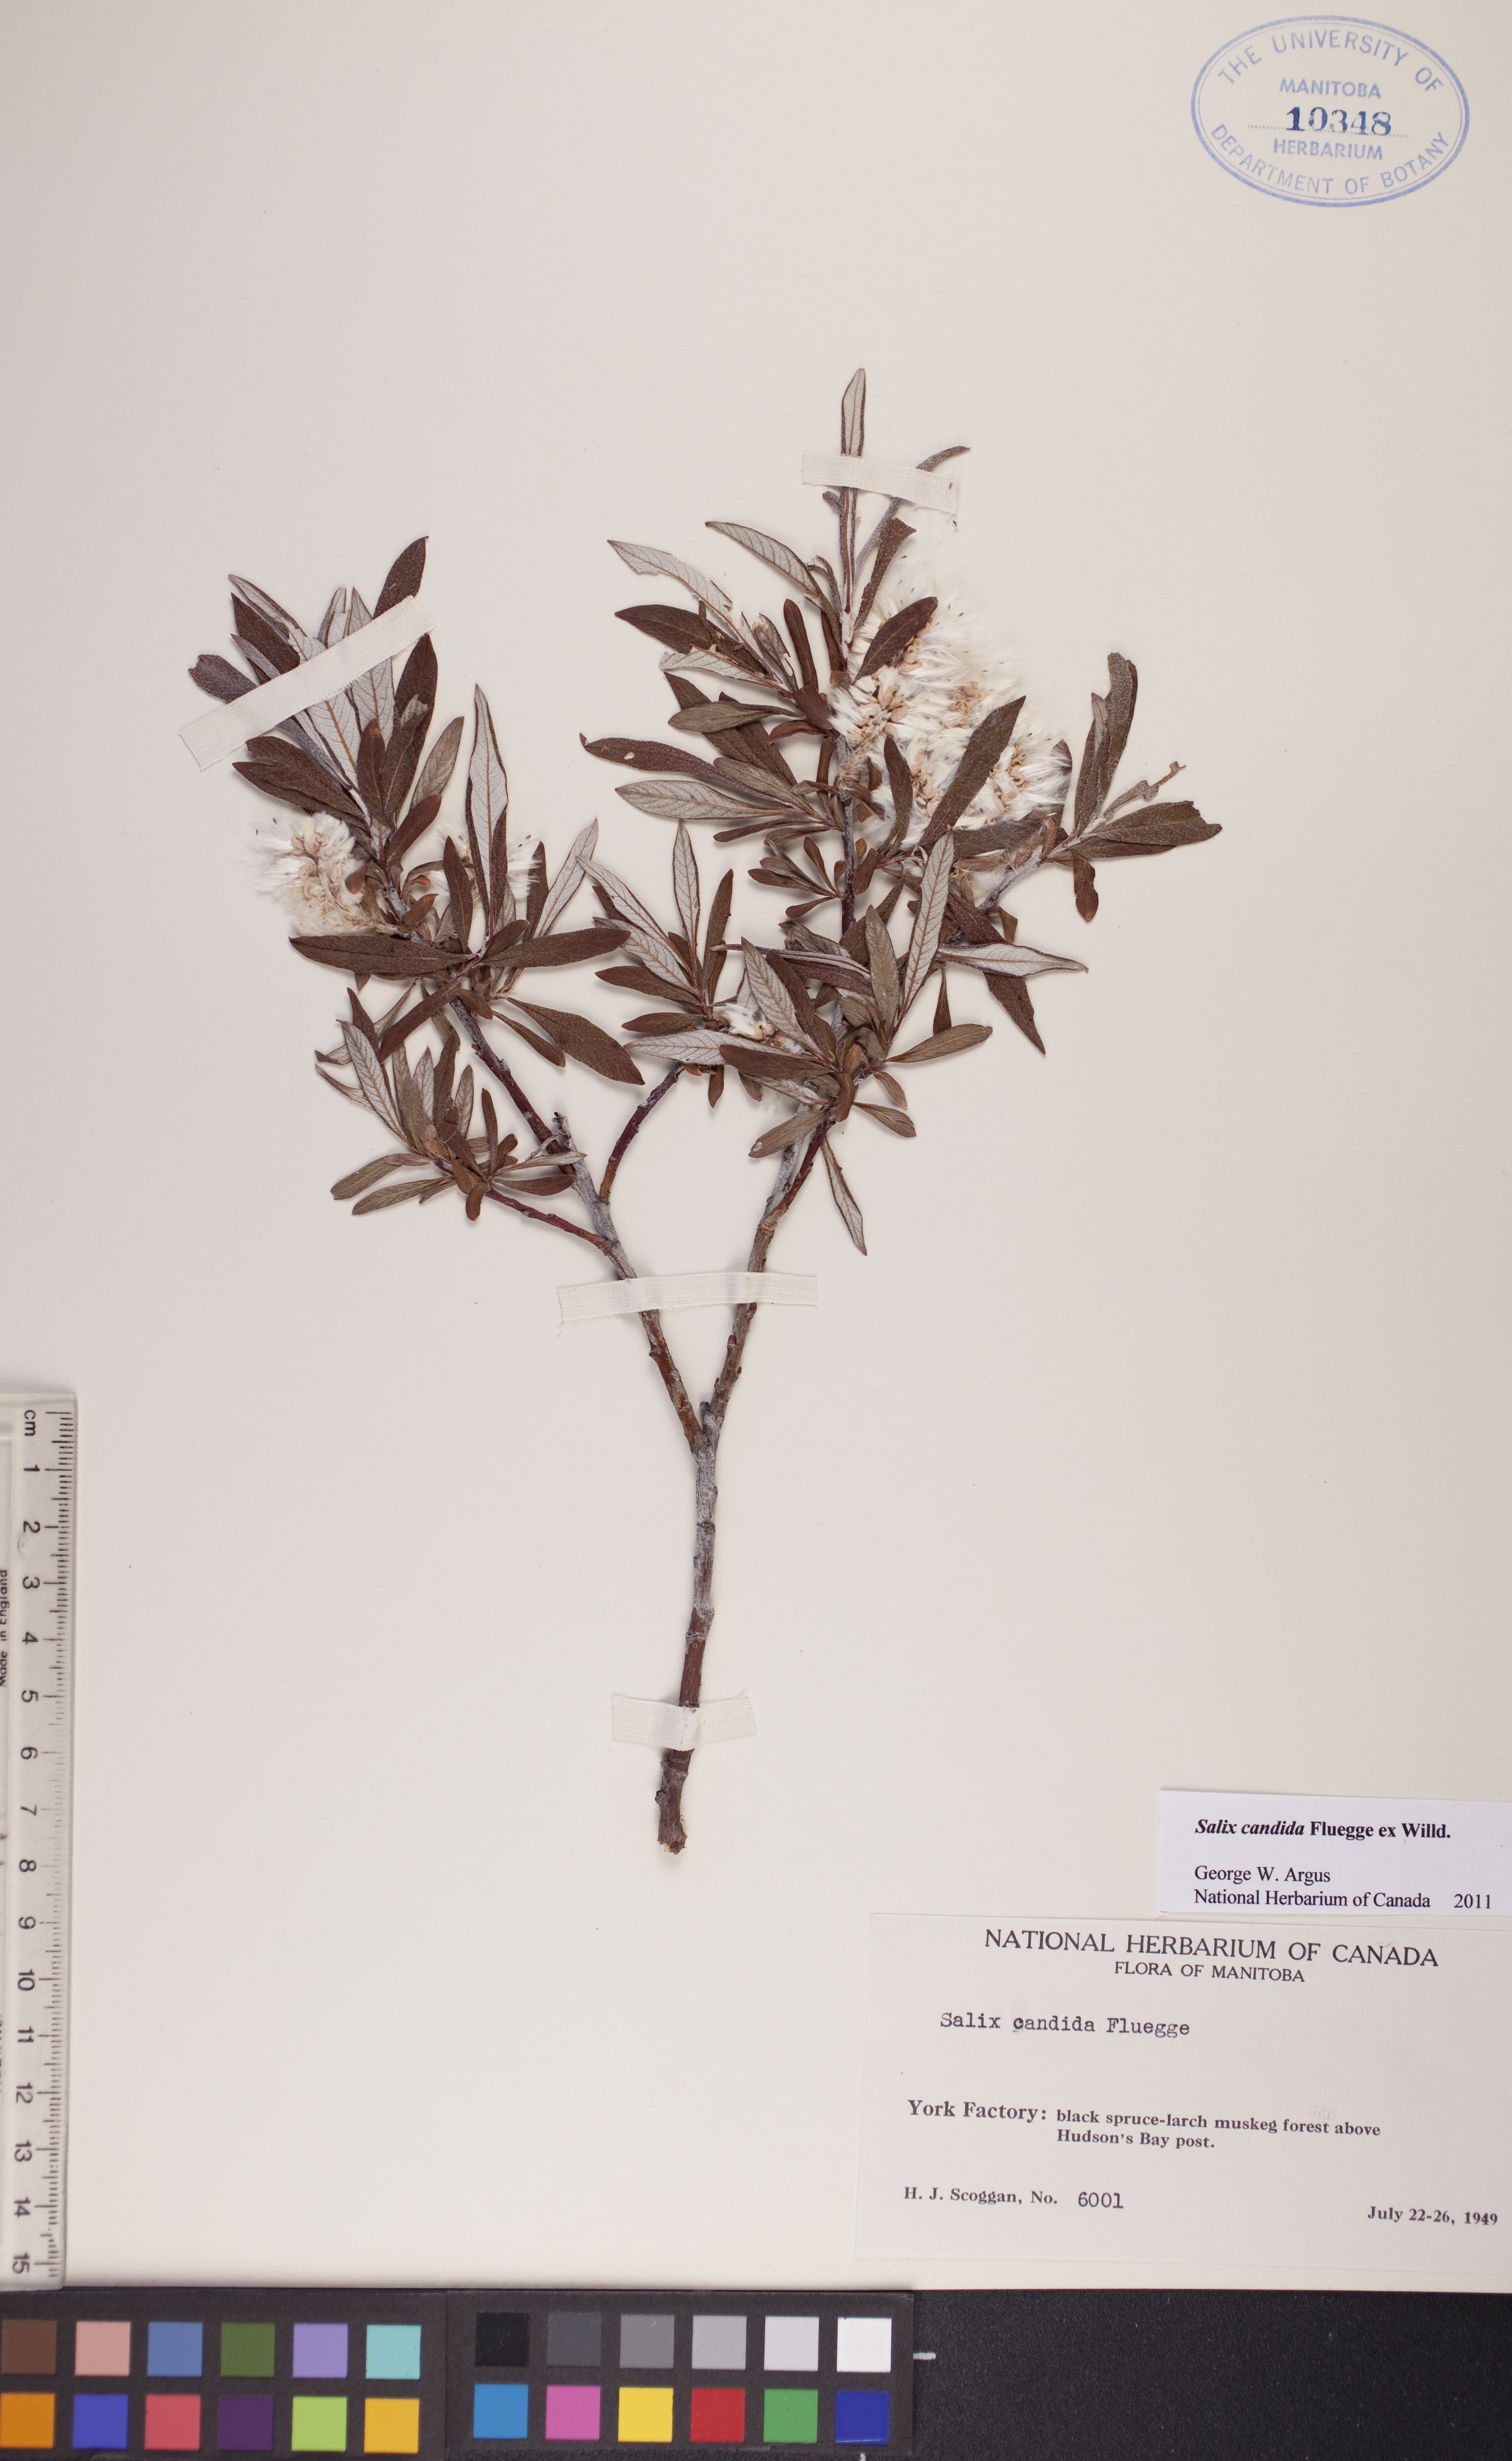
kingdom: Plantae
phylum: Tracheophyta
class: Magnoliopsida
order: Malpighiales
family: Salicaceae
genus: Salix
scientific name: Salix candida
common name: Hoary willow
